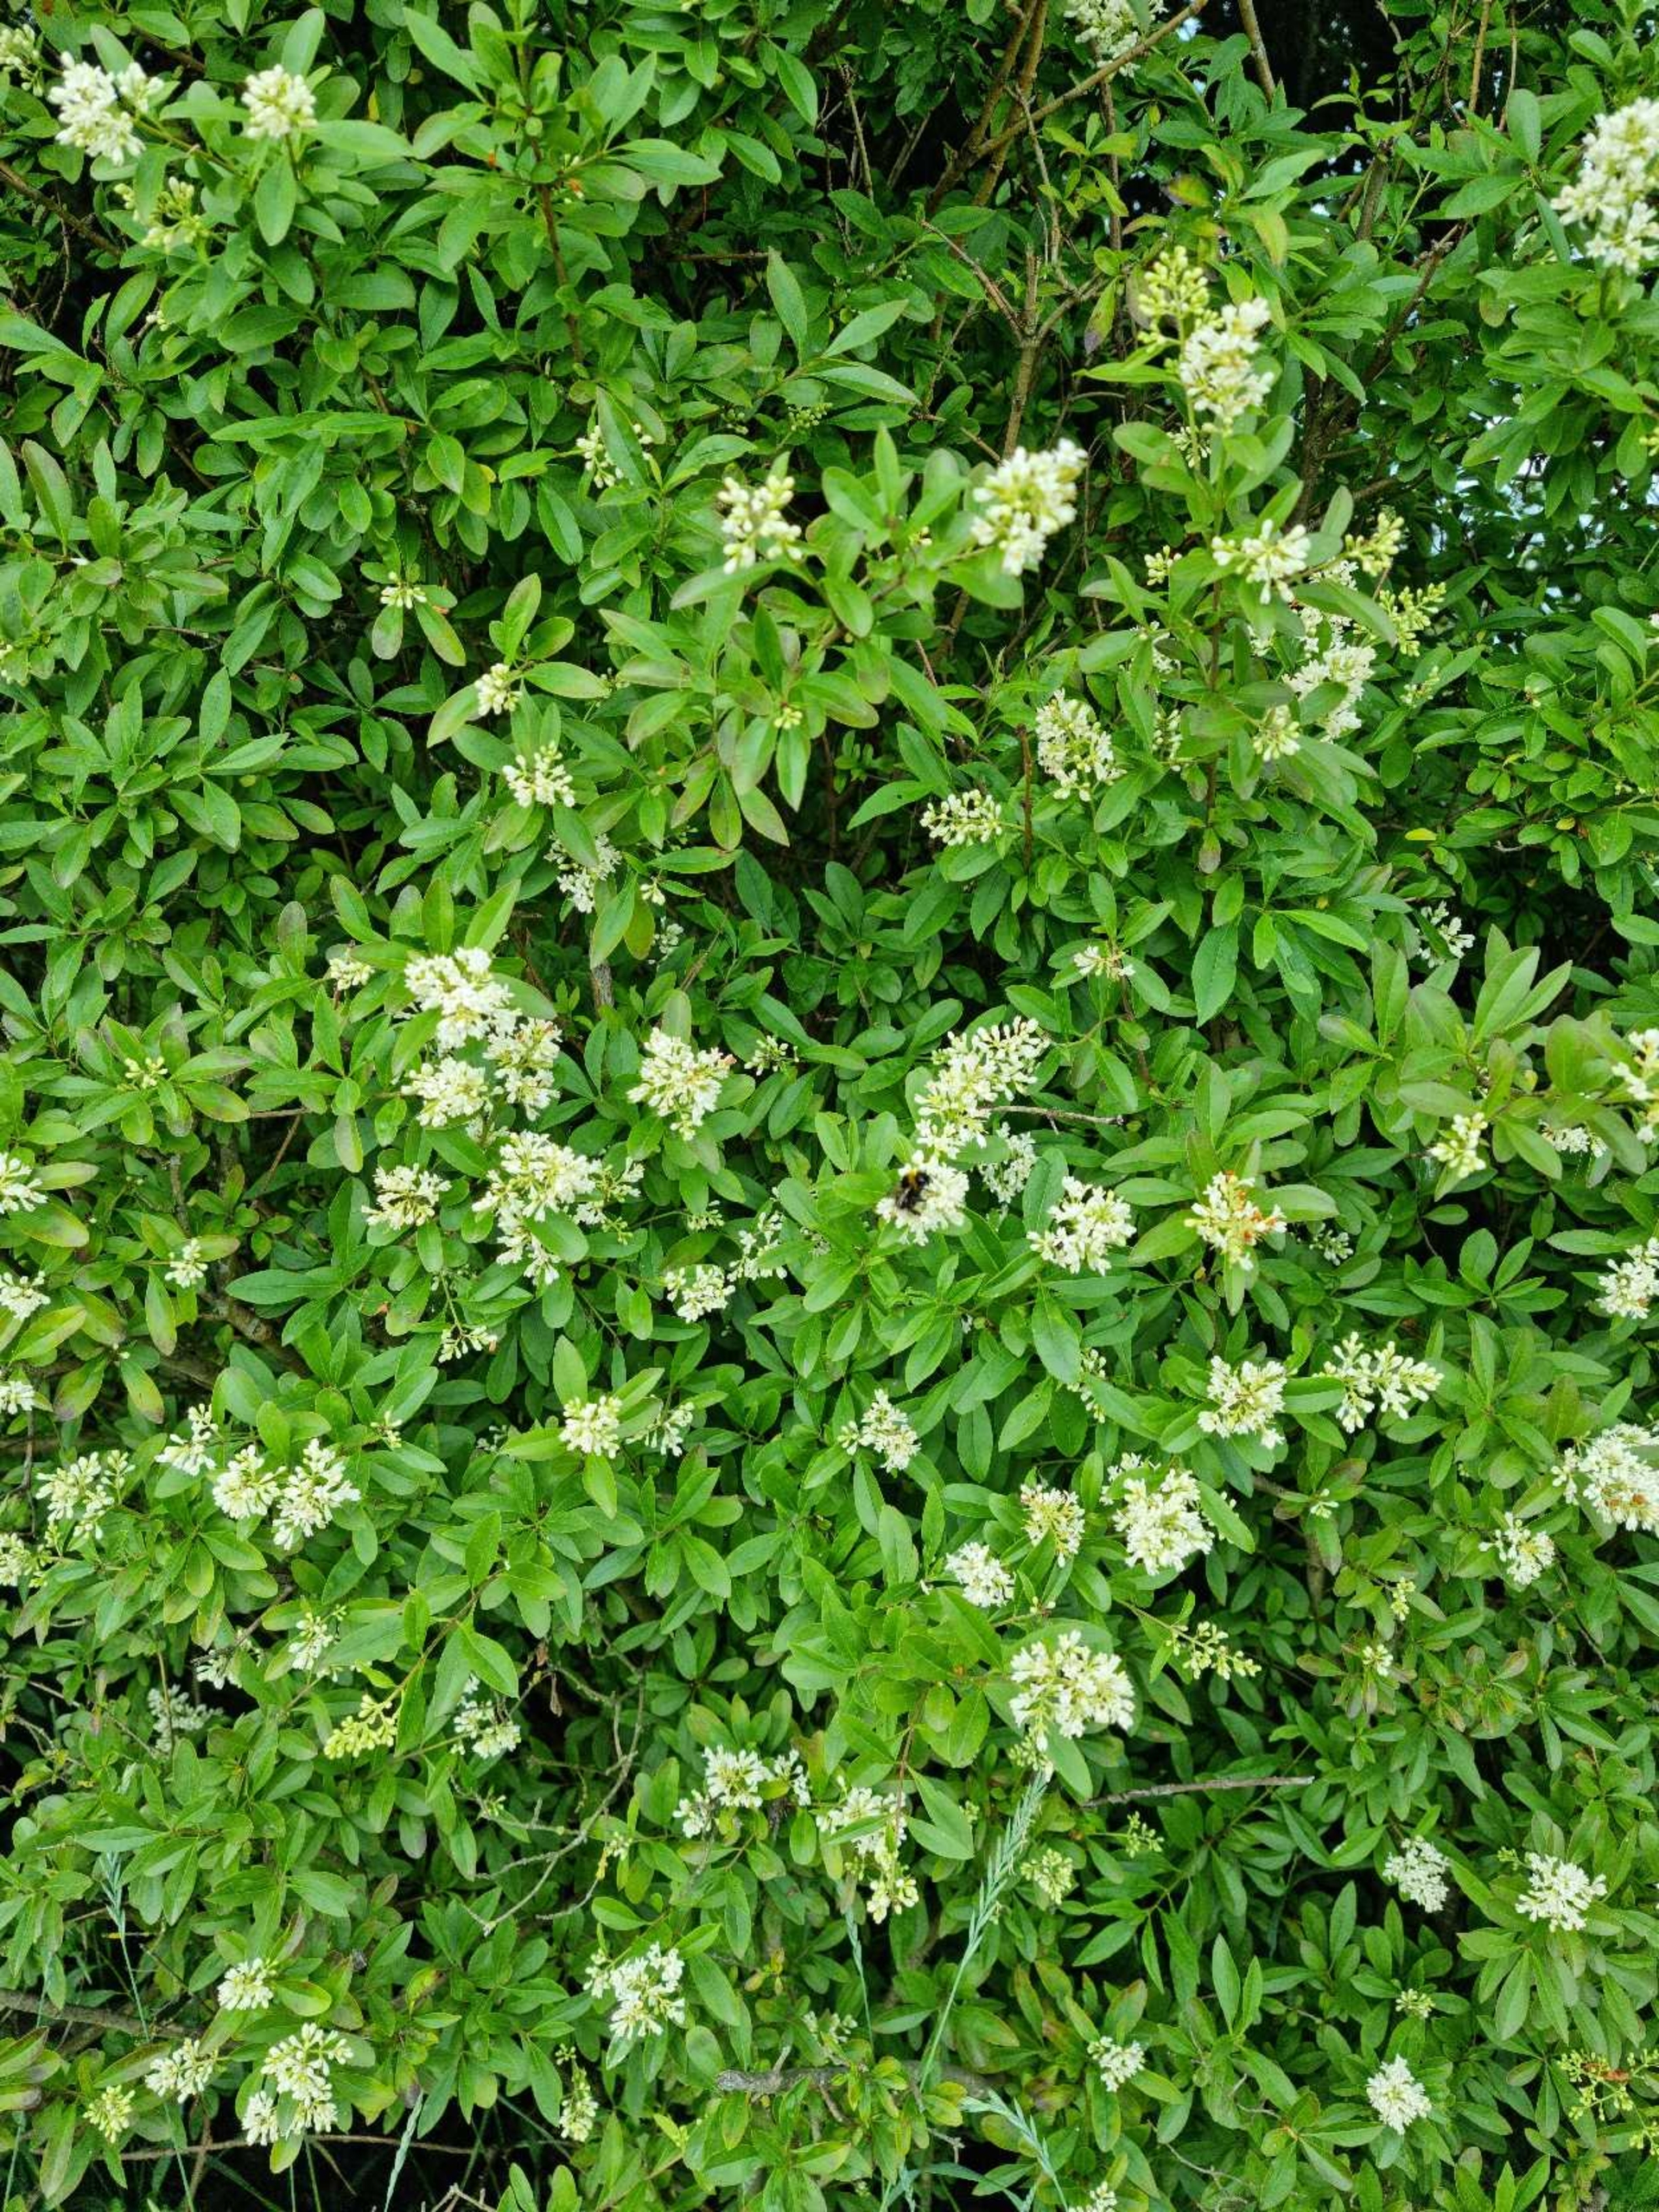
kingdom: Plantae
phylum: Tracheophyta
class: Magnoliopsida
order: Lamiales
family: Oleaceae
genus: Ligustrum
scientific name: Ligustrum vulgare
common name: Liguster
